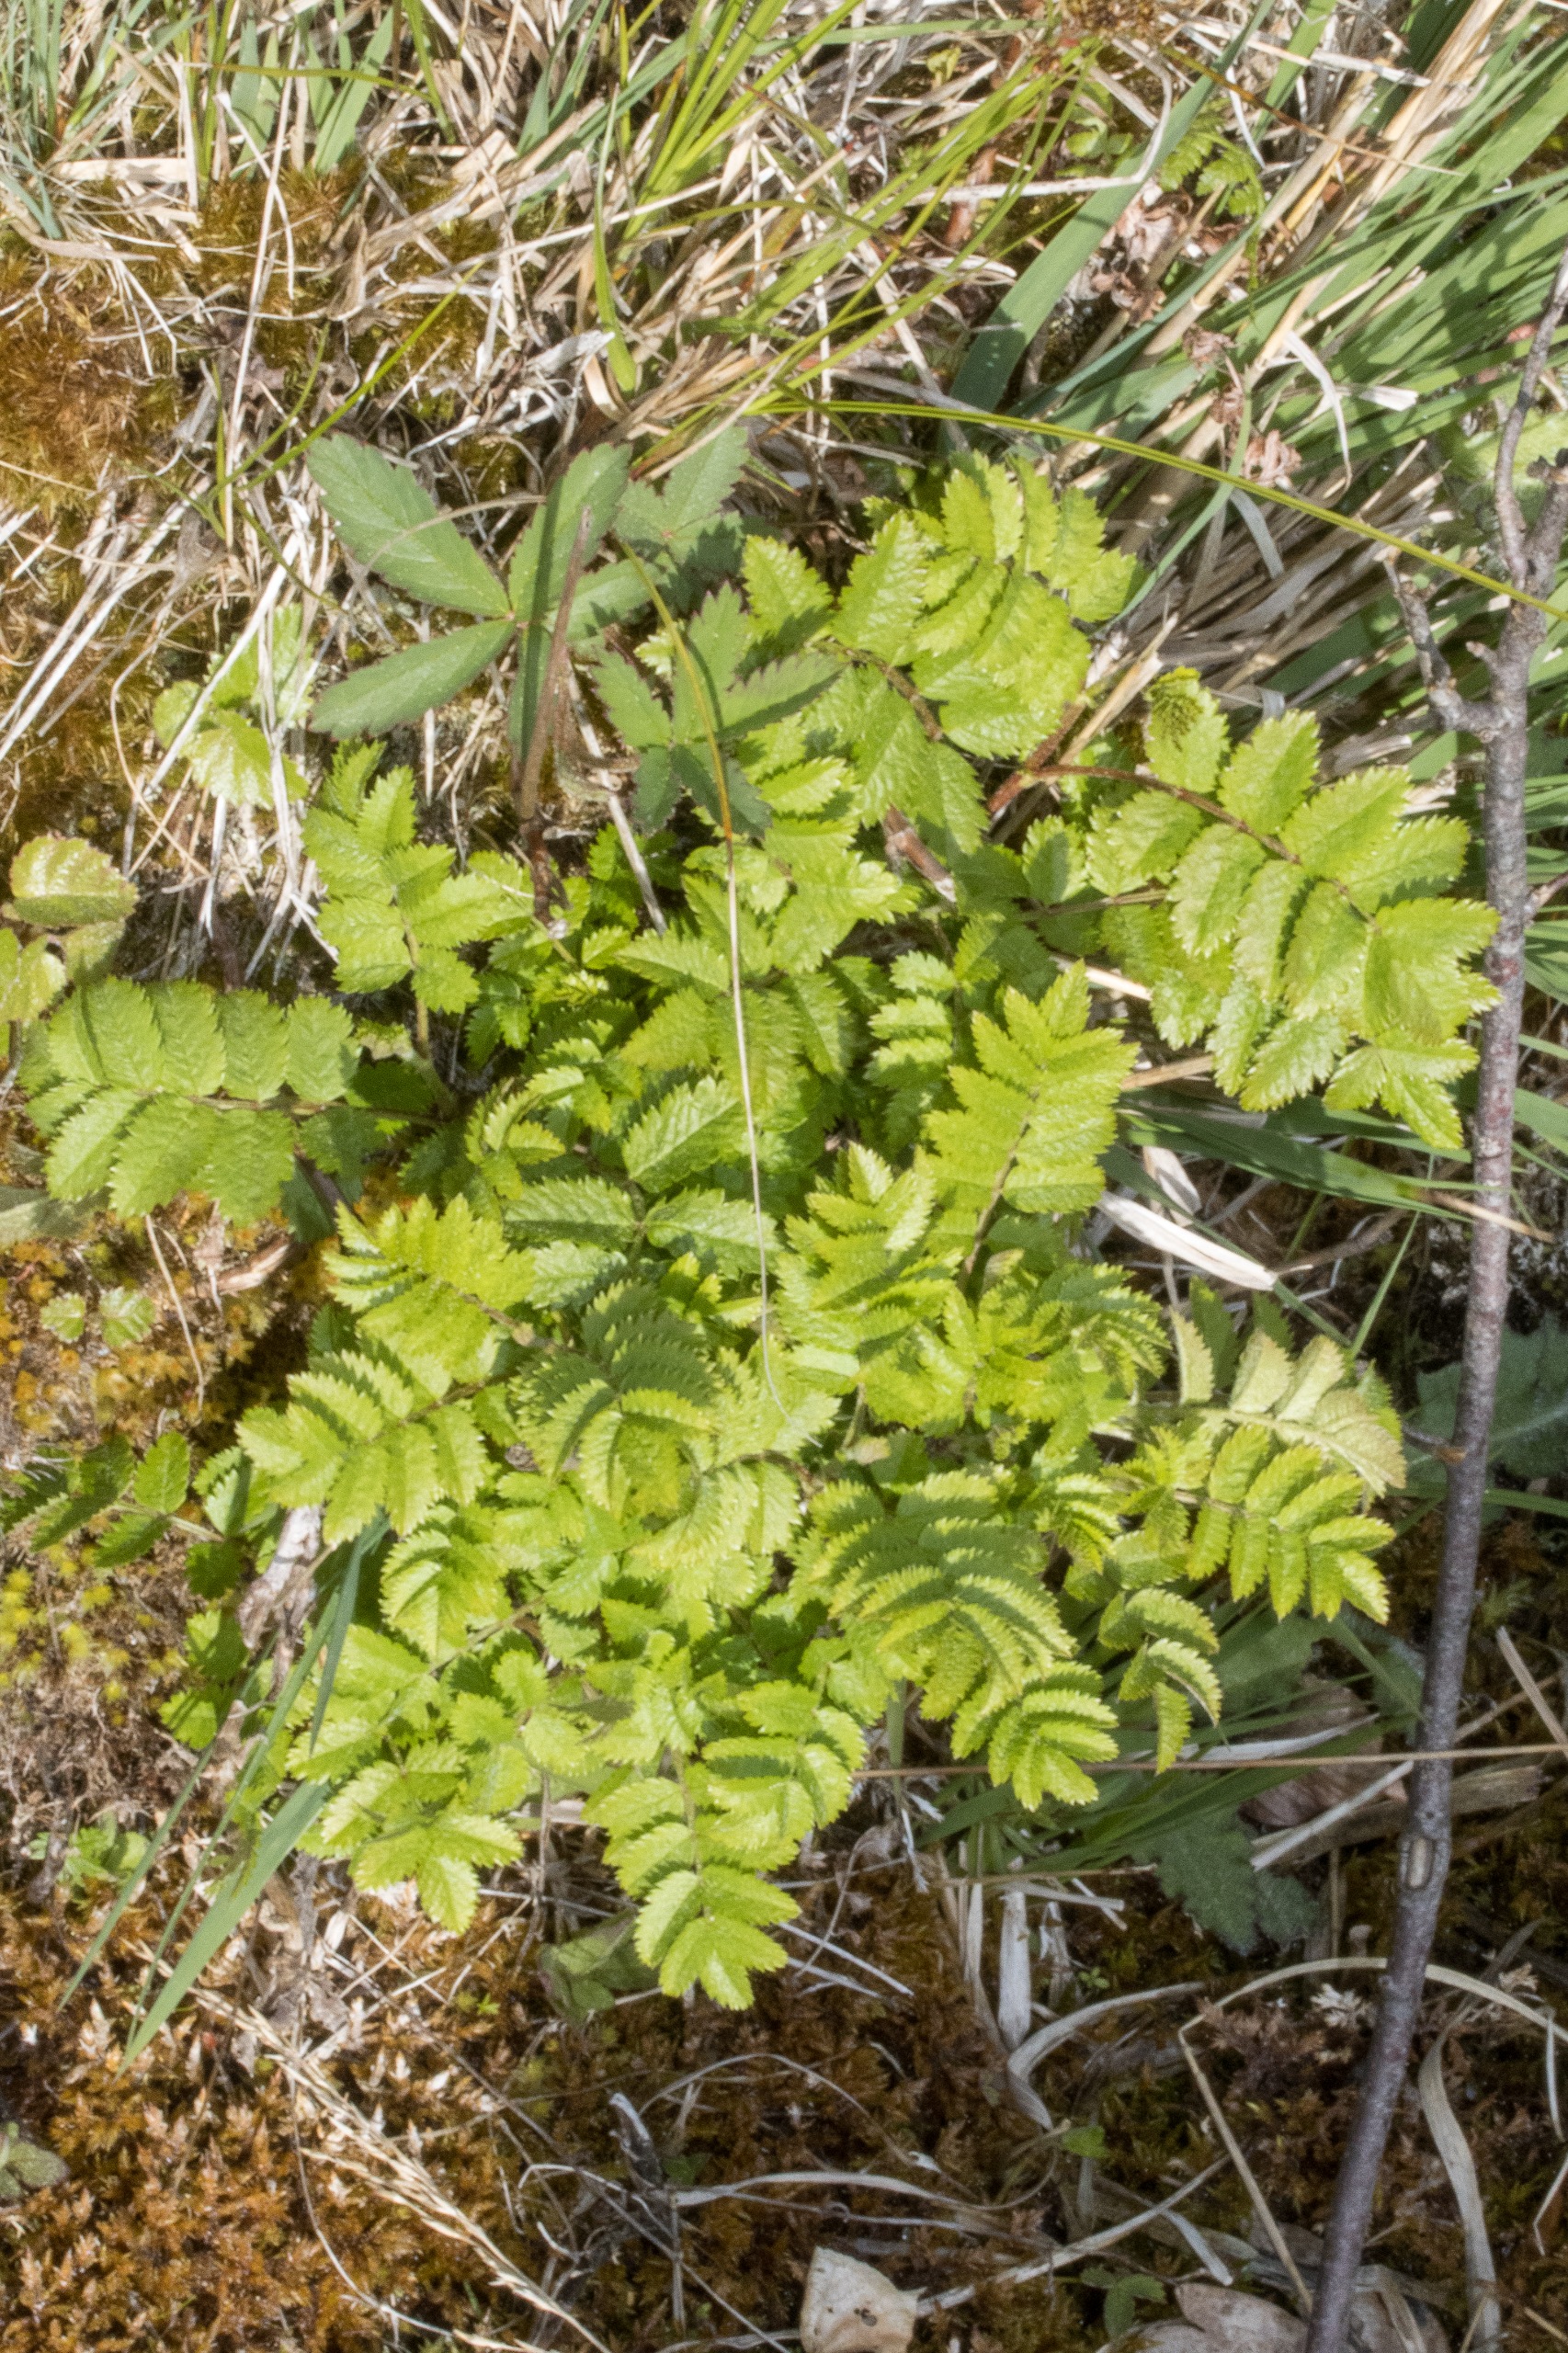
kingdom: Plantae
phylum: Tracheophyta
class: Magnoliopsida
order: Rosales
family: Rosaceae
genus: Sorbus
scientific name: Sorbus aucuparia
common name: Almindelig røn
